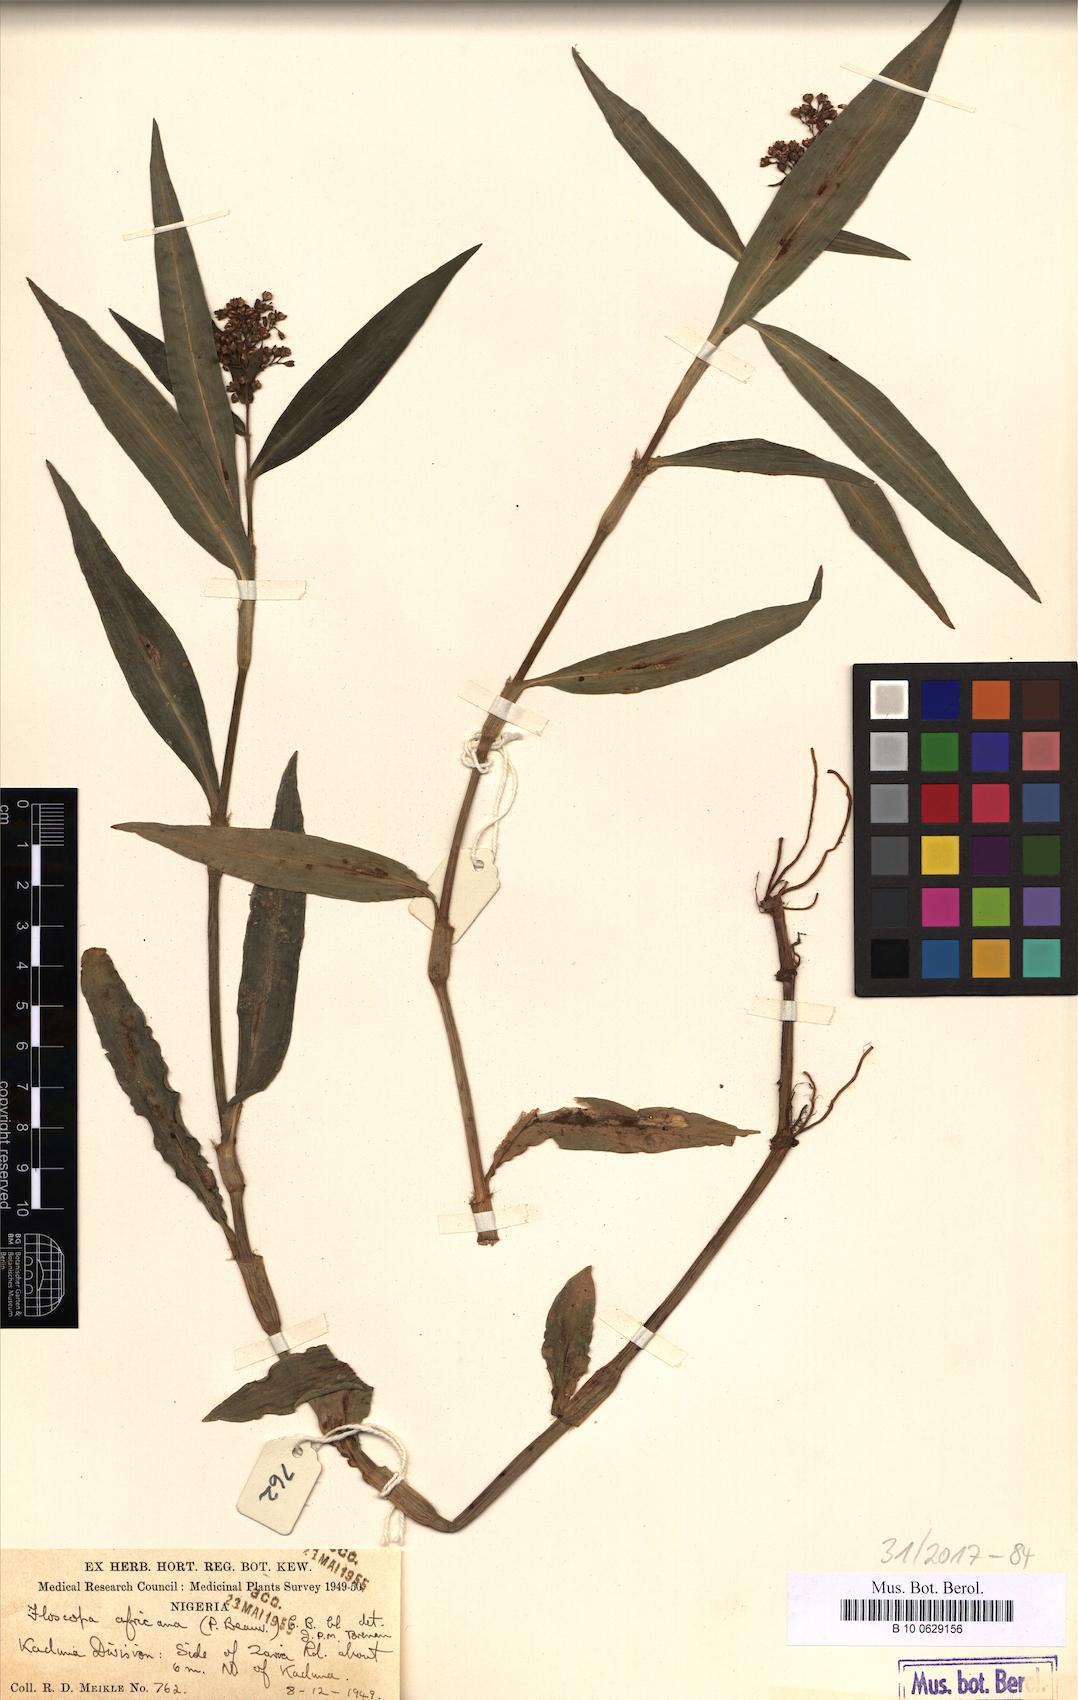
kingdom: Plantae
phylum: Tracheophyta
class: Liliopsida
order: Commelinales
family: Commelinaceae
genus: Floscopa
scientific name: Floscopa africana
